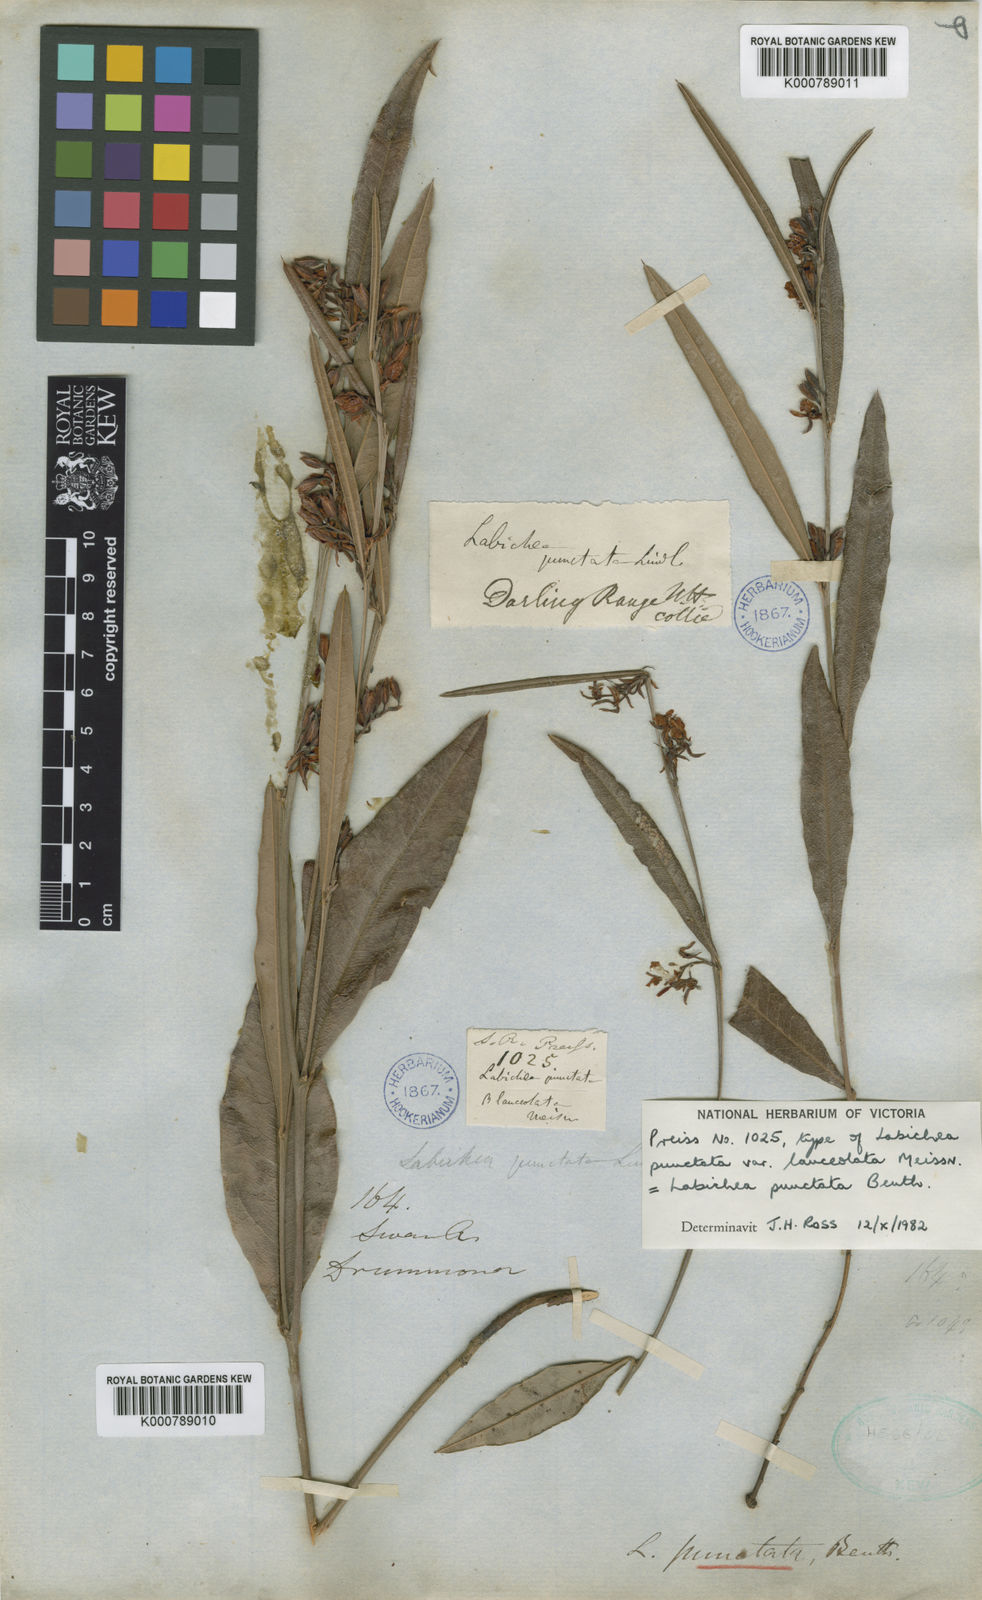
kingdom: Plantae
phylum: Tracheophyta
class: Magnoliopsida
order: Fabales
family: Fabaceae
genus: Labichea
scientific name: Labichea punctata
